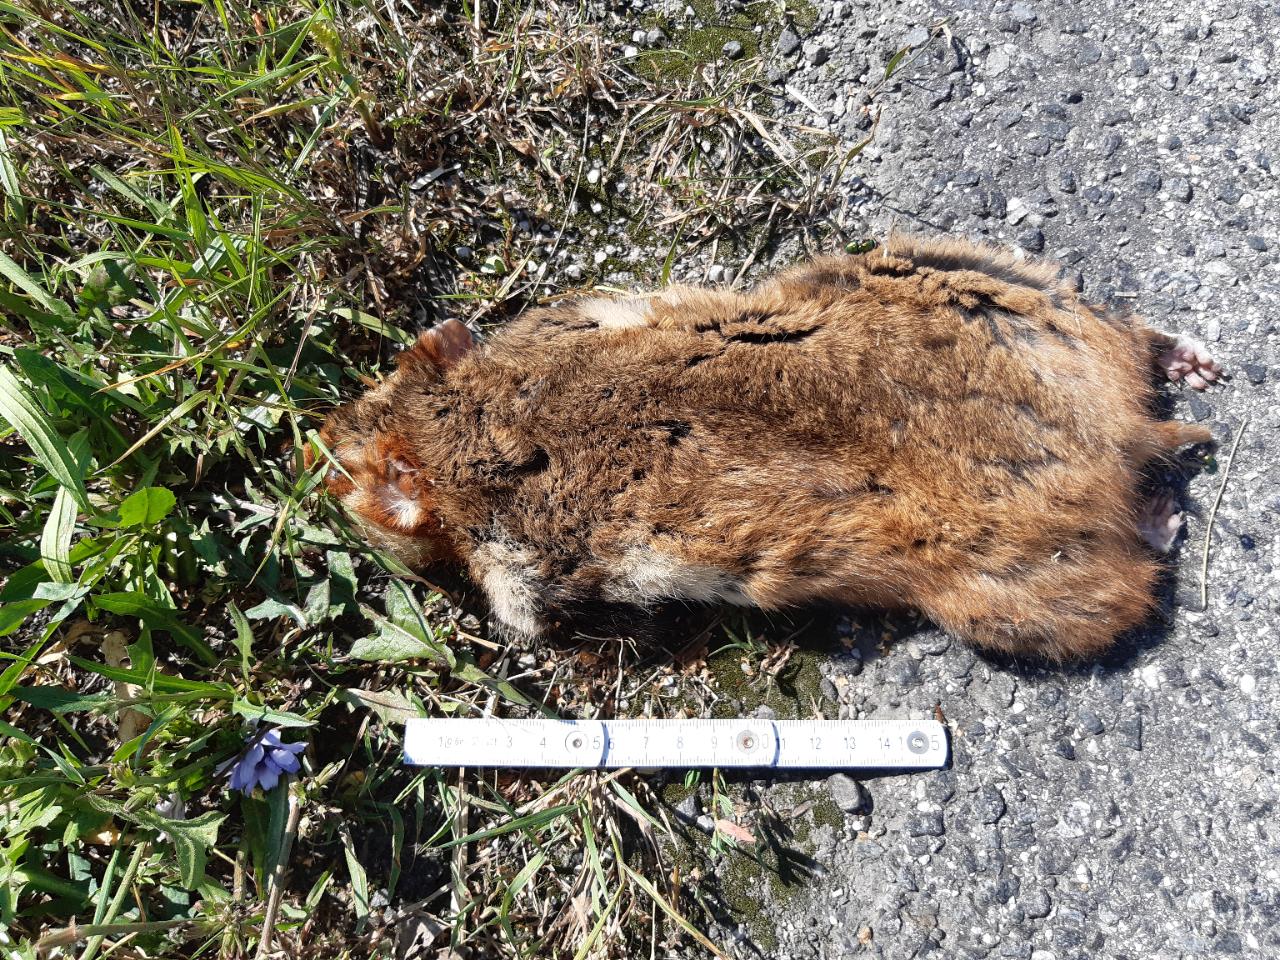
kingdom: Animalia
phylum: Chordata
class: Mammalia
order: Rodentia
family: Cricetidae
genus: Cricetus
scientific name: Cricetus cricetus
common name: Common hamster
